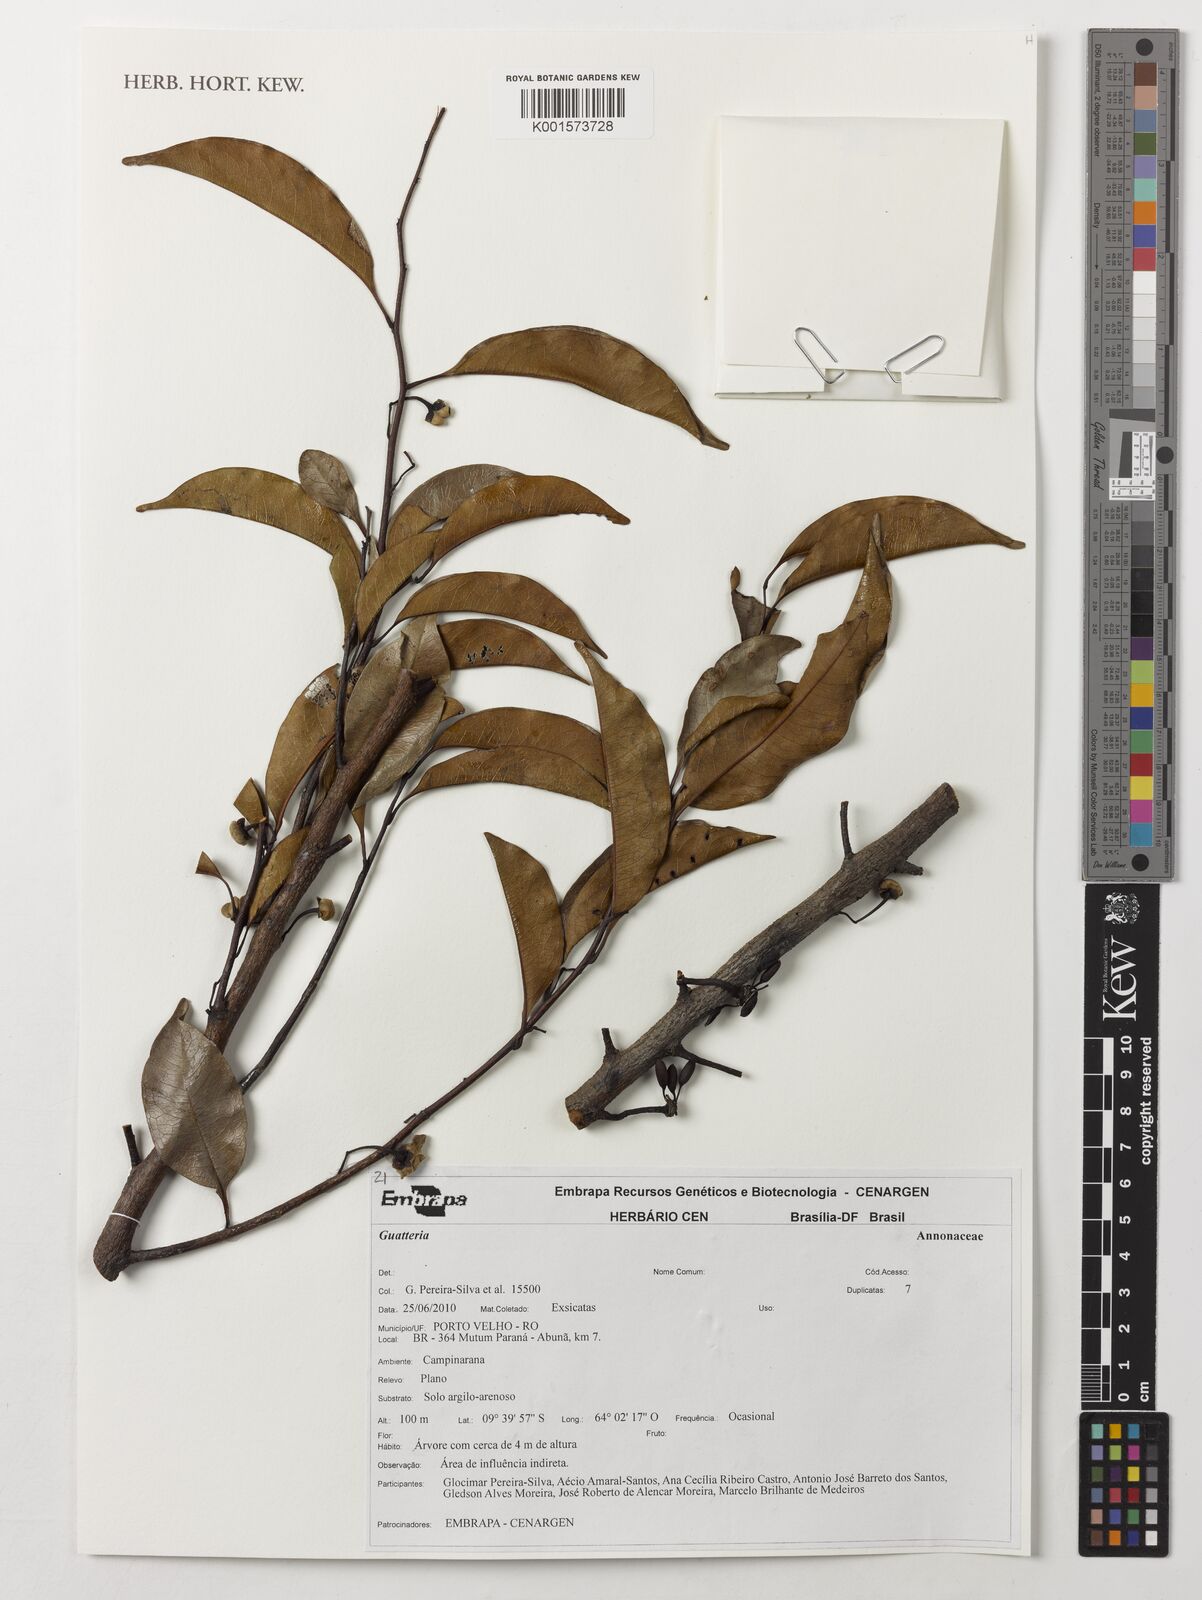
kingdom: Plantae
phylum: Tracheophyta
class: Magnoliopsida
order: Magnoliales
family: Annonaceae
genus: Guatteria
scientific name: Guatteria
